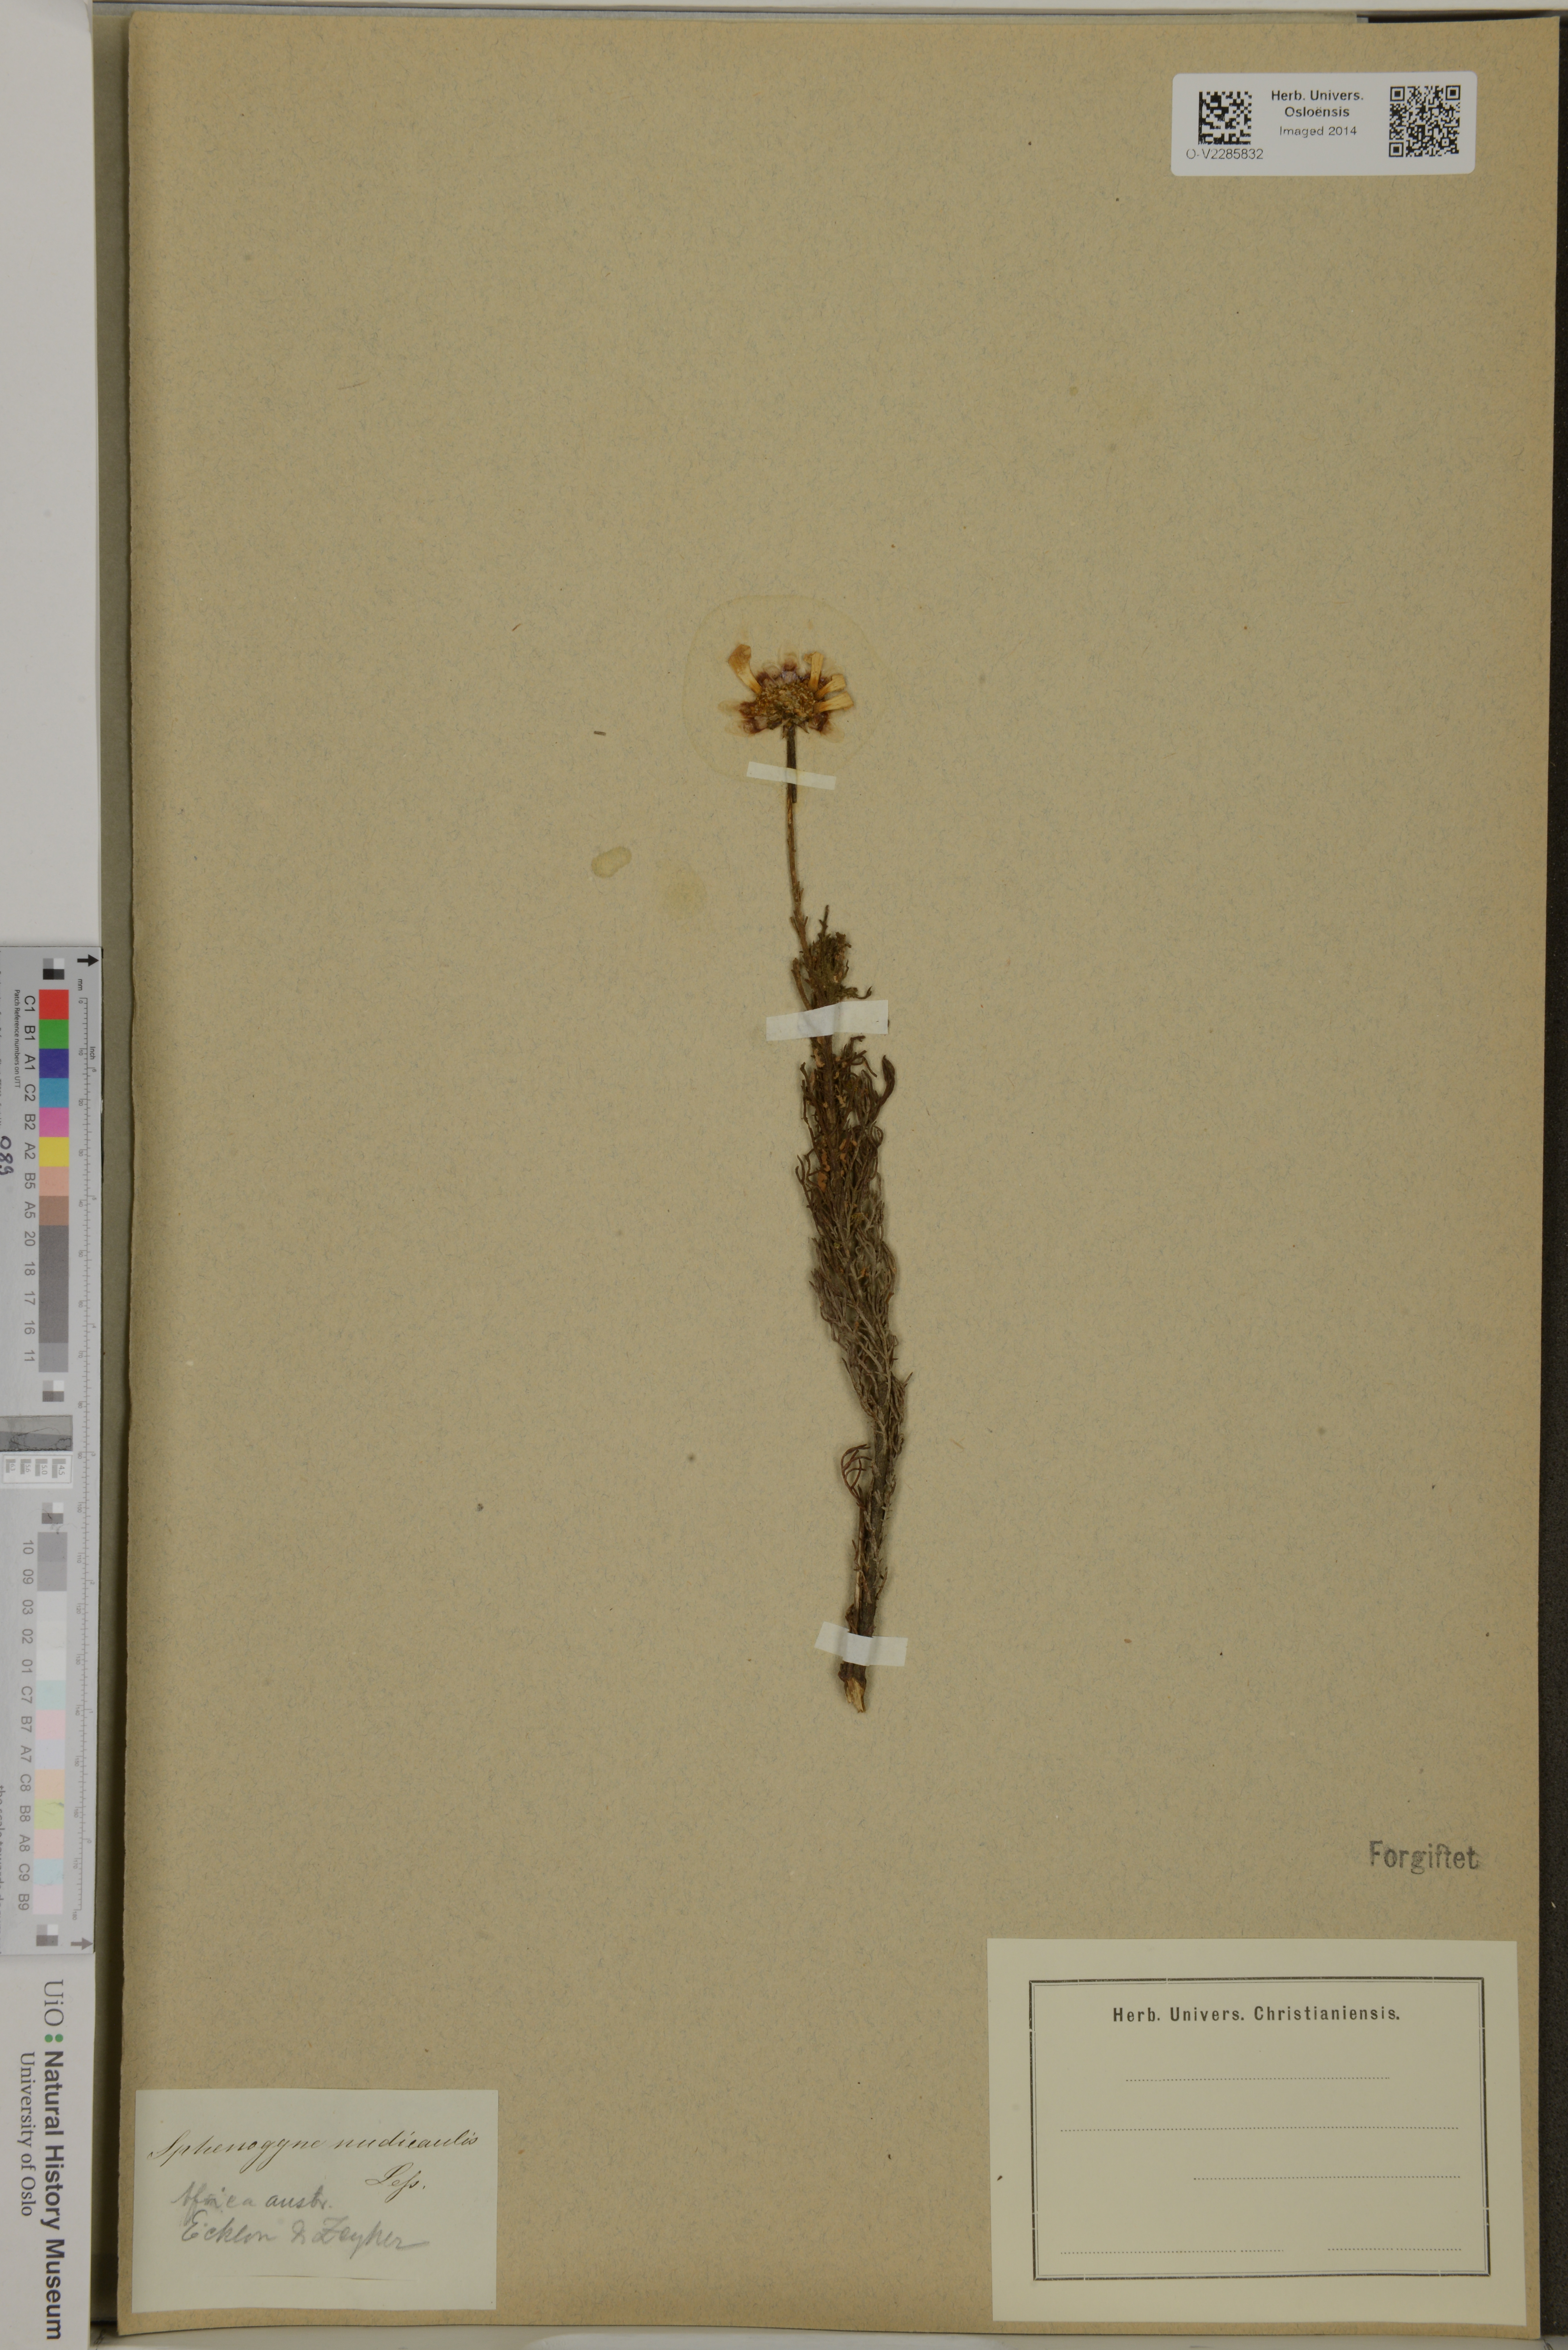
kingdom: Plantae
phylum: Tracheophyta
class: Magnoliopsida
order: Asterales
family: Asteraceae
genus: Ursinia
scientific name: Ursinia nudicaulis
